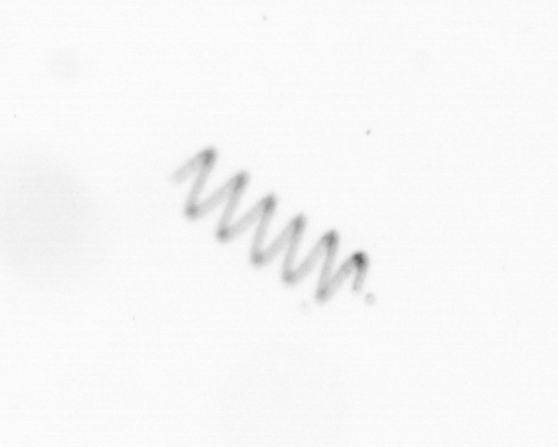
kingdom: Chromista
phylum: Ochrophyta
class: Bacillariophyceae
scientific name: Bacillariophyceae
